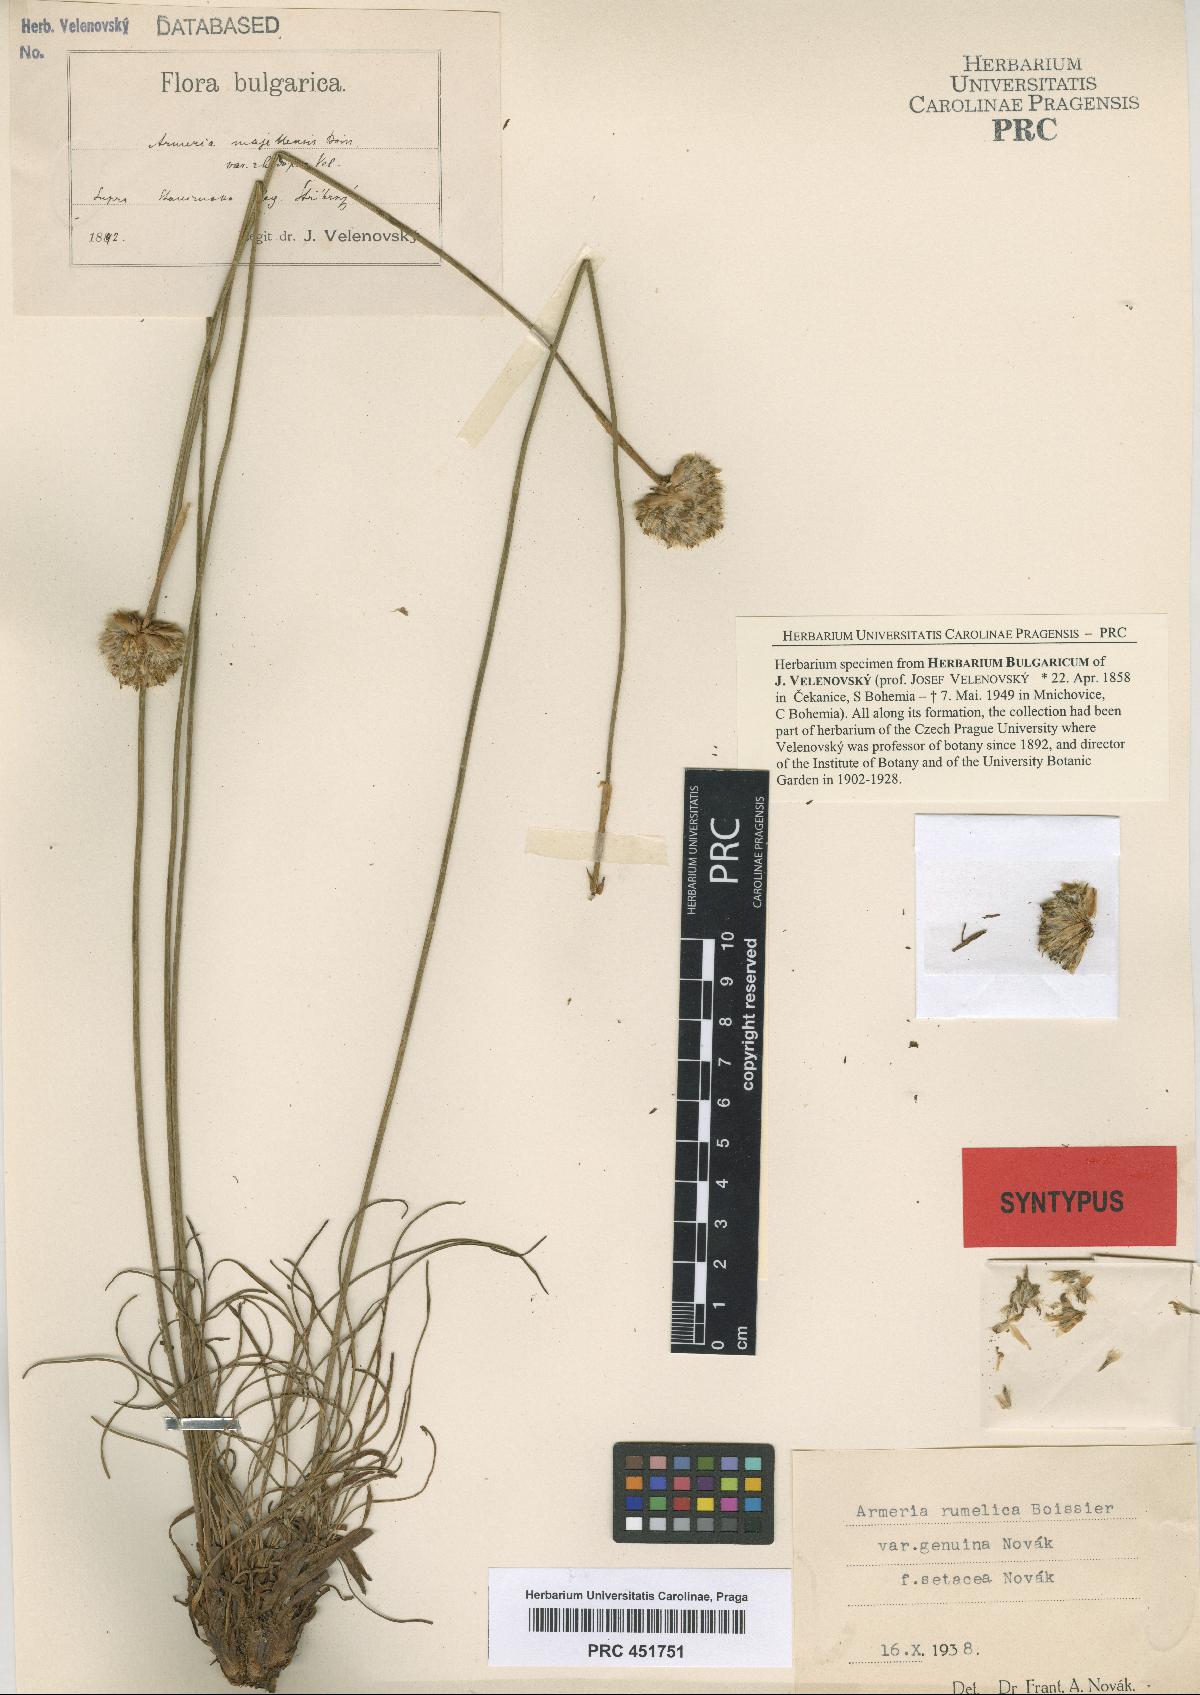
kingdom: Plantae
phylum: Tracheophyta
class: Magnoliopsida
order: Caryophyllales
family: Plumbaginaceae
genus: Armeria
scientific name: Armeria rumelica
